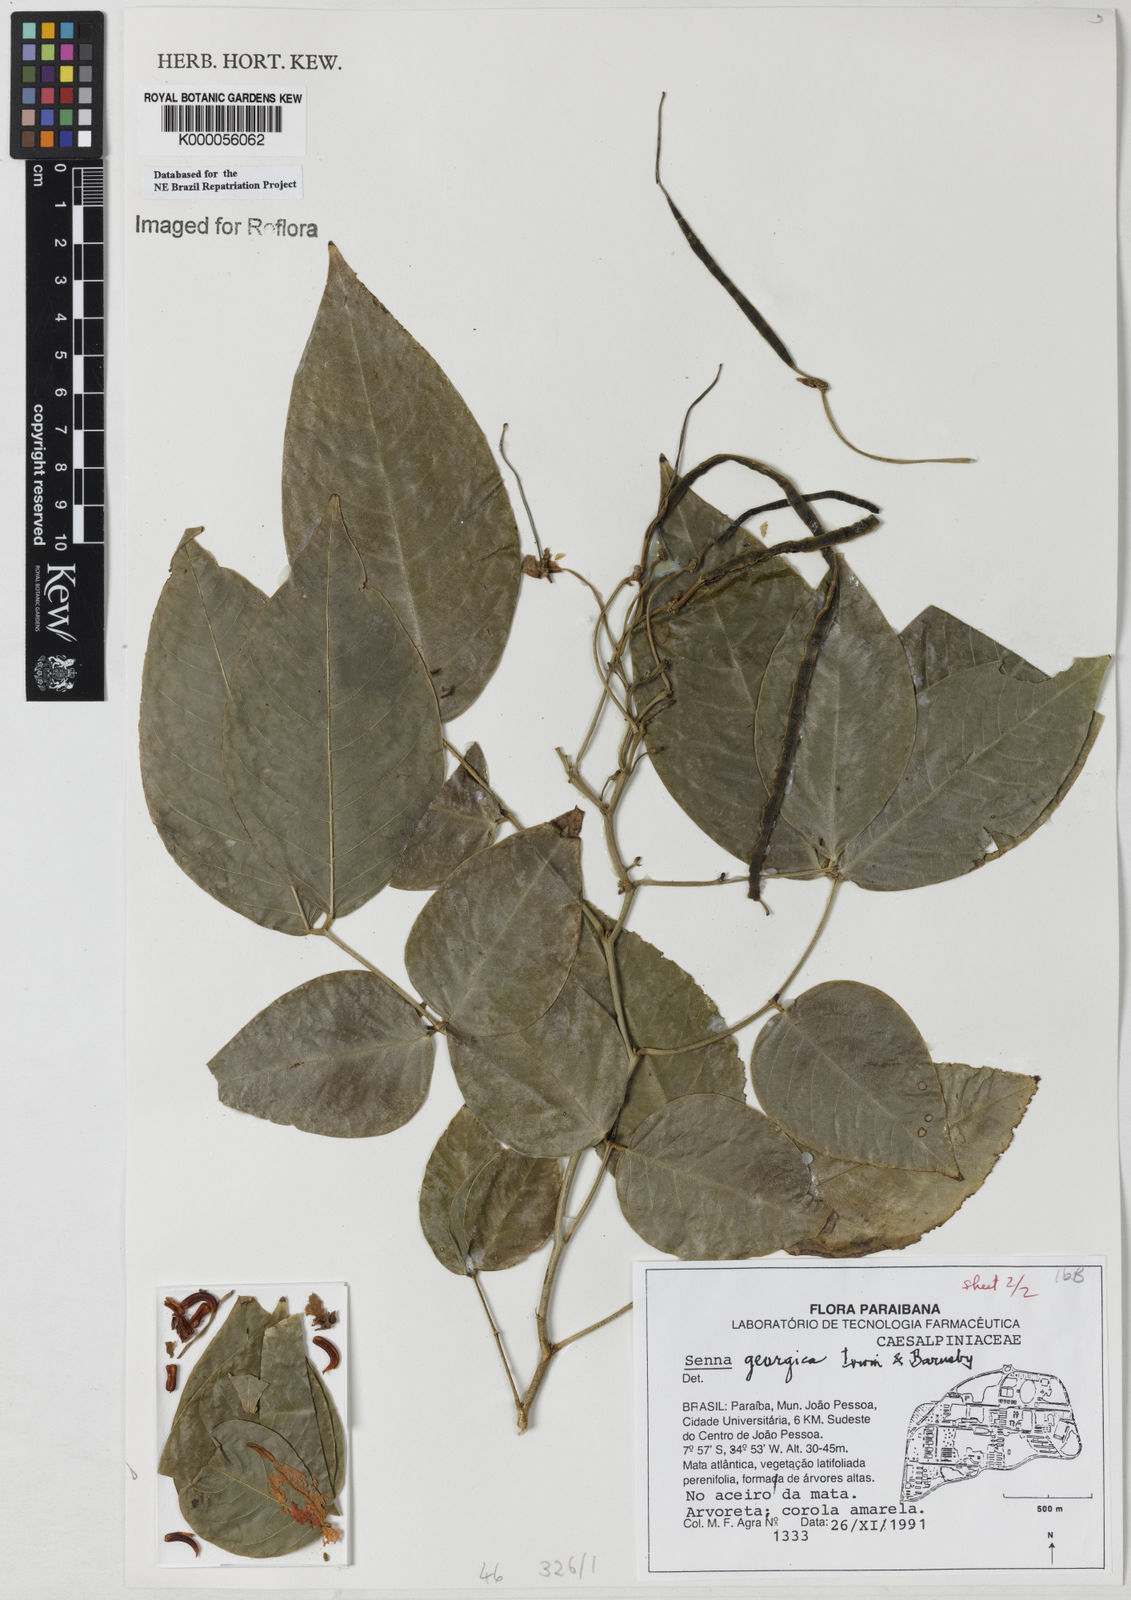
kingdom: Plantae
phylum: Tracheophyta
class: Magnoliopsida
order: Fabales
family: Fabaceae
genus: Senna
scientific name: Senna georgica
